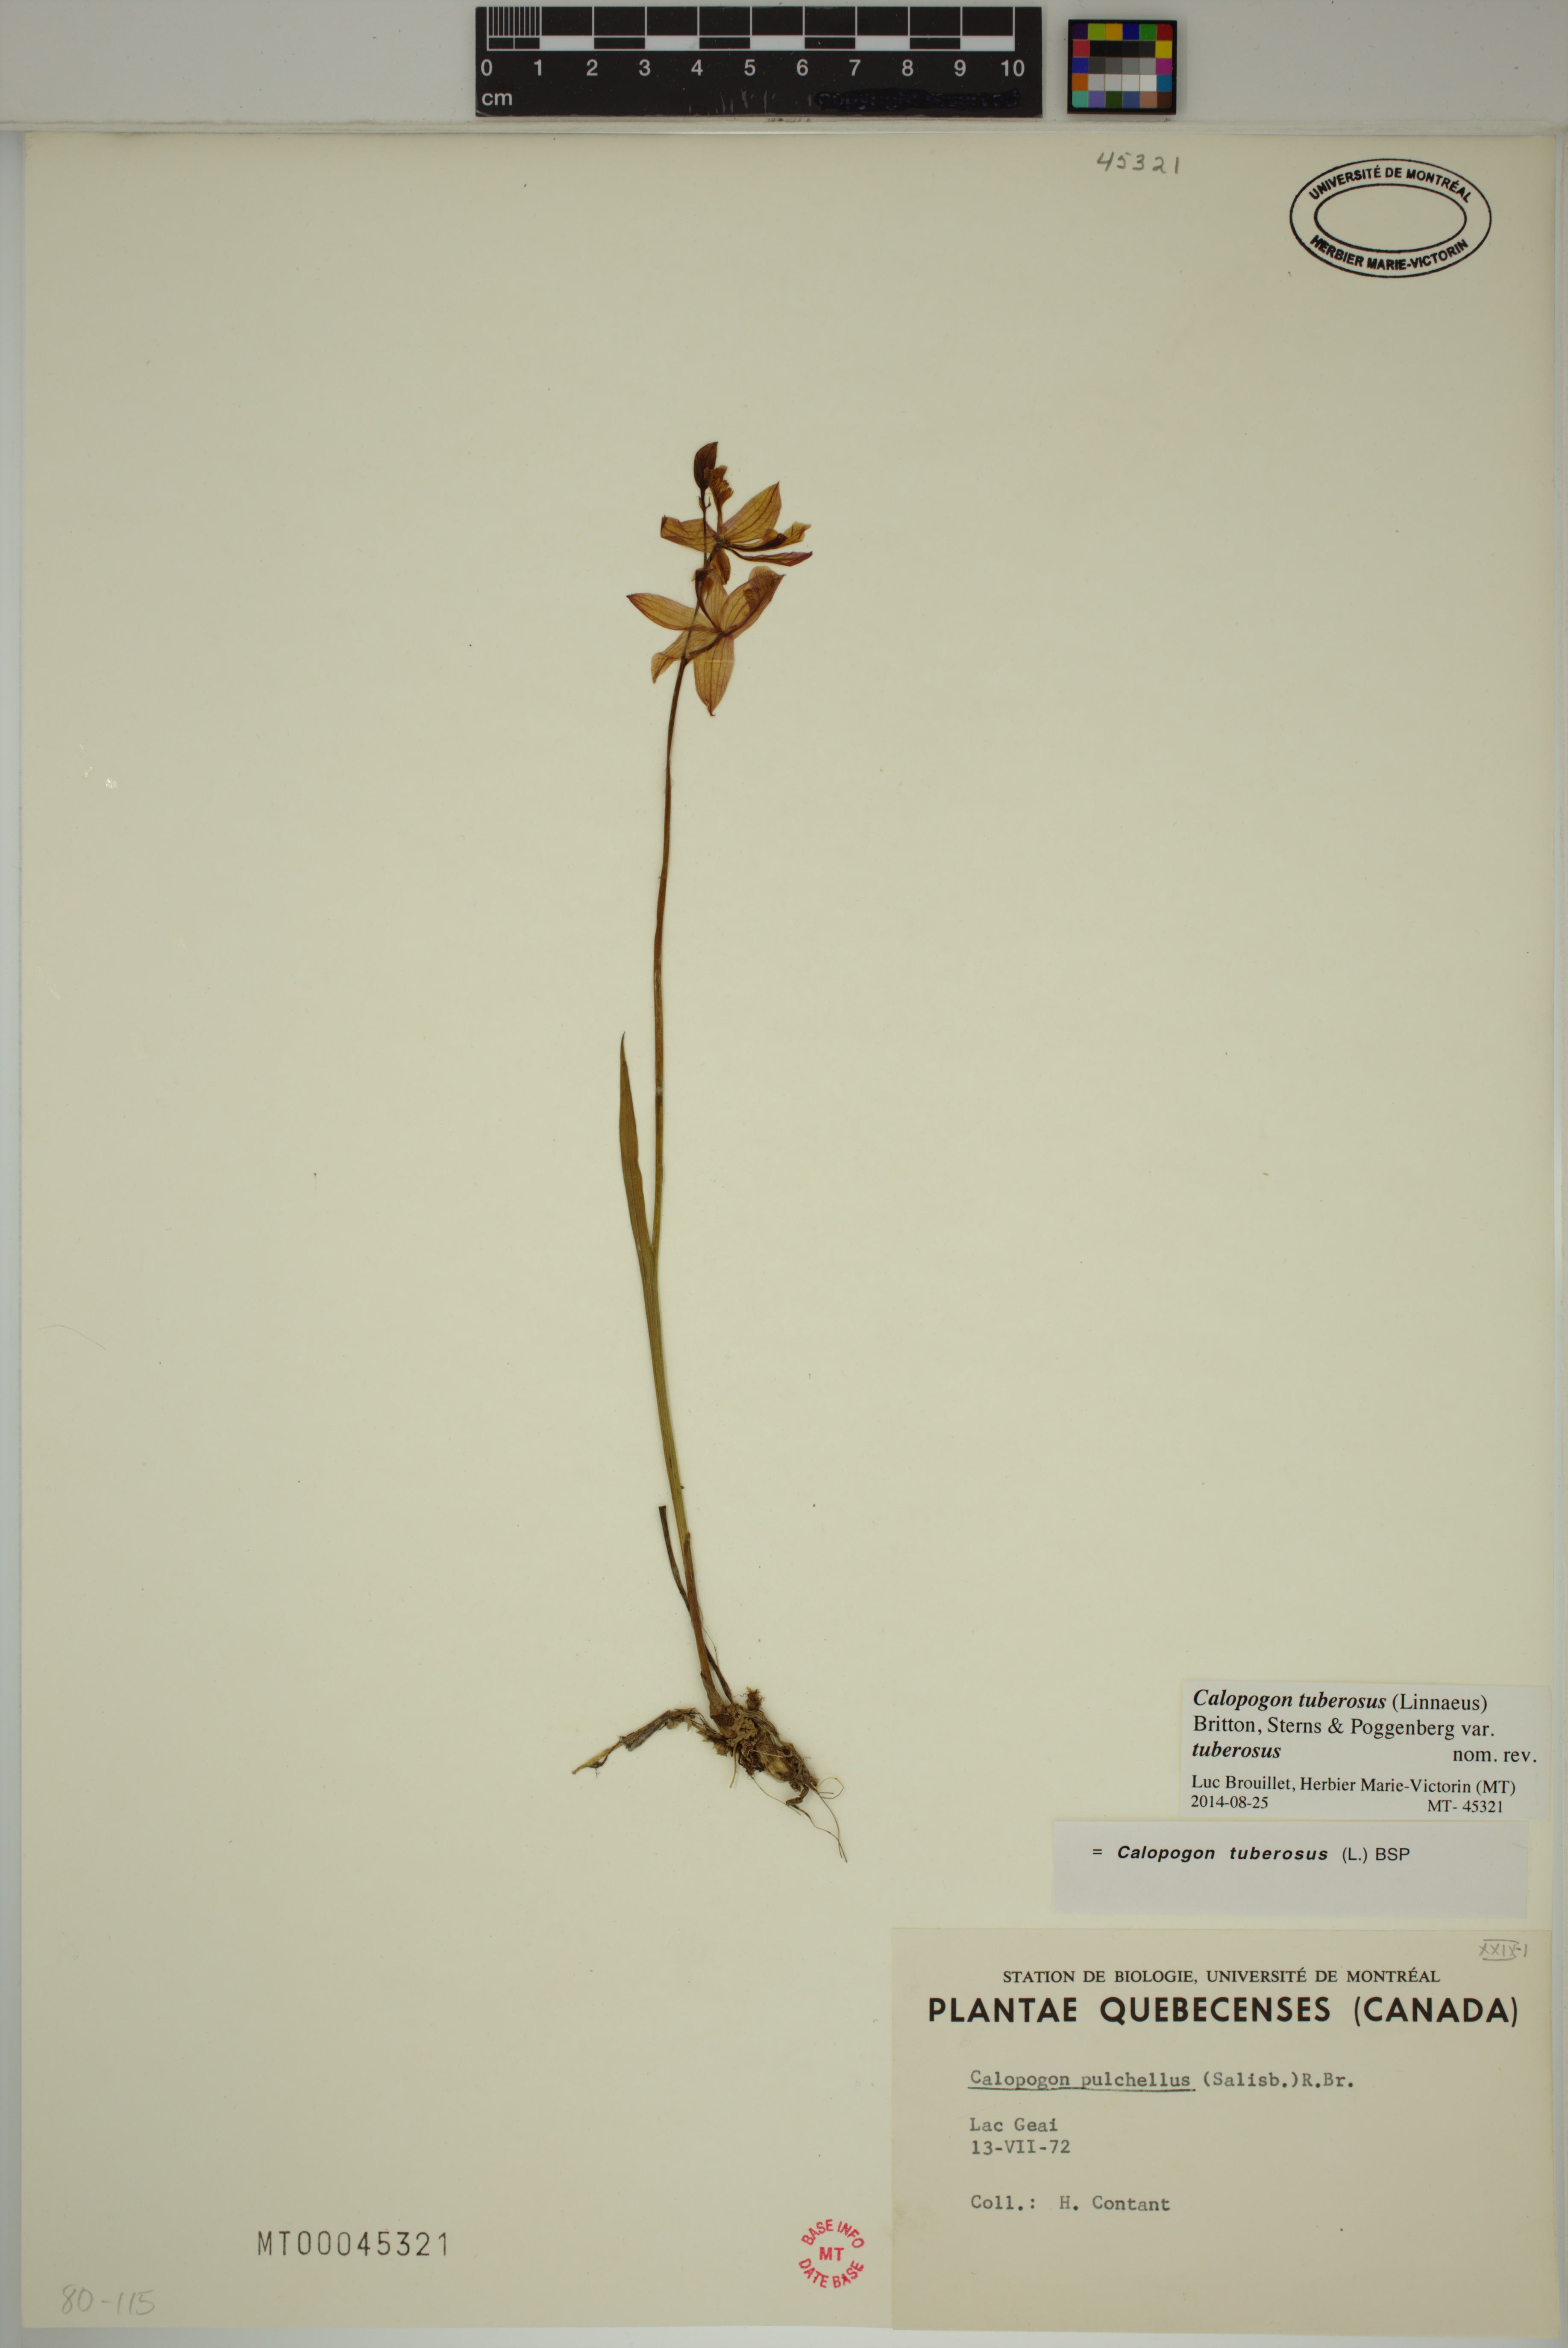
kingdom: Plantae
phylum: Tracheophyta
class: Liliopsida
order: Asparagales
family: Orchidaceae
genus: Calopogon
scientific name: Calopogon tuberosus
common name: Grass-pink
